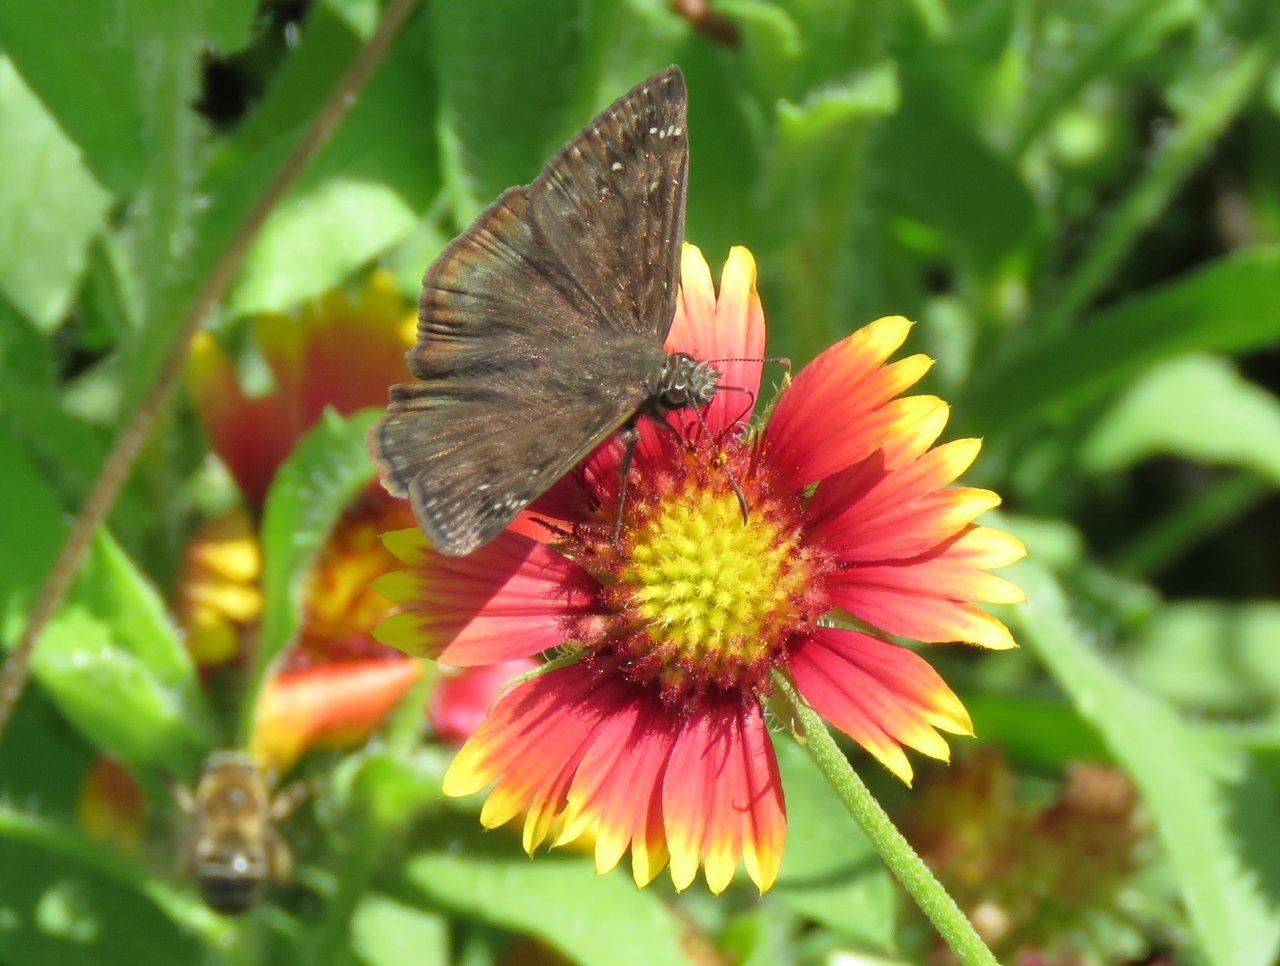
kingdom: Animalia
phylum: Arthropoda
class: Insecta
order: Lepidoptera
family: Hesperiidae
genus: Gesta
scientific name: Gesta
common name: Horace's Duskywing
